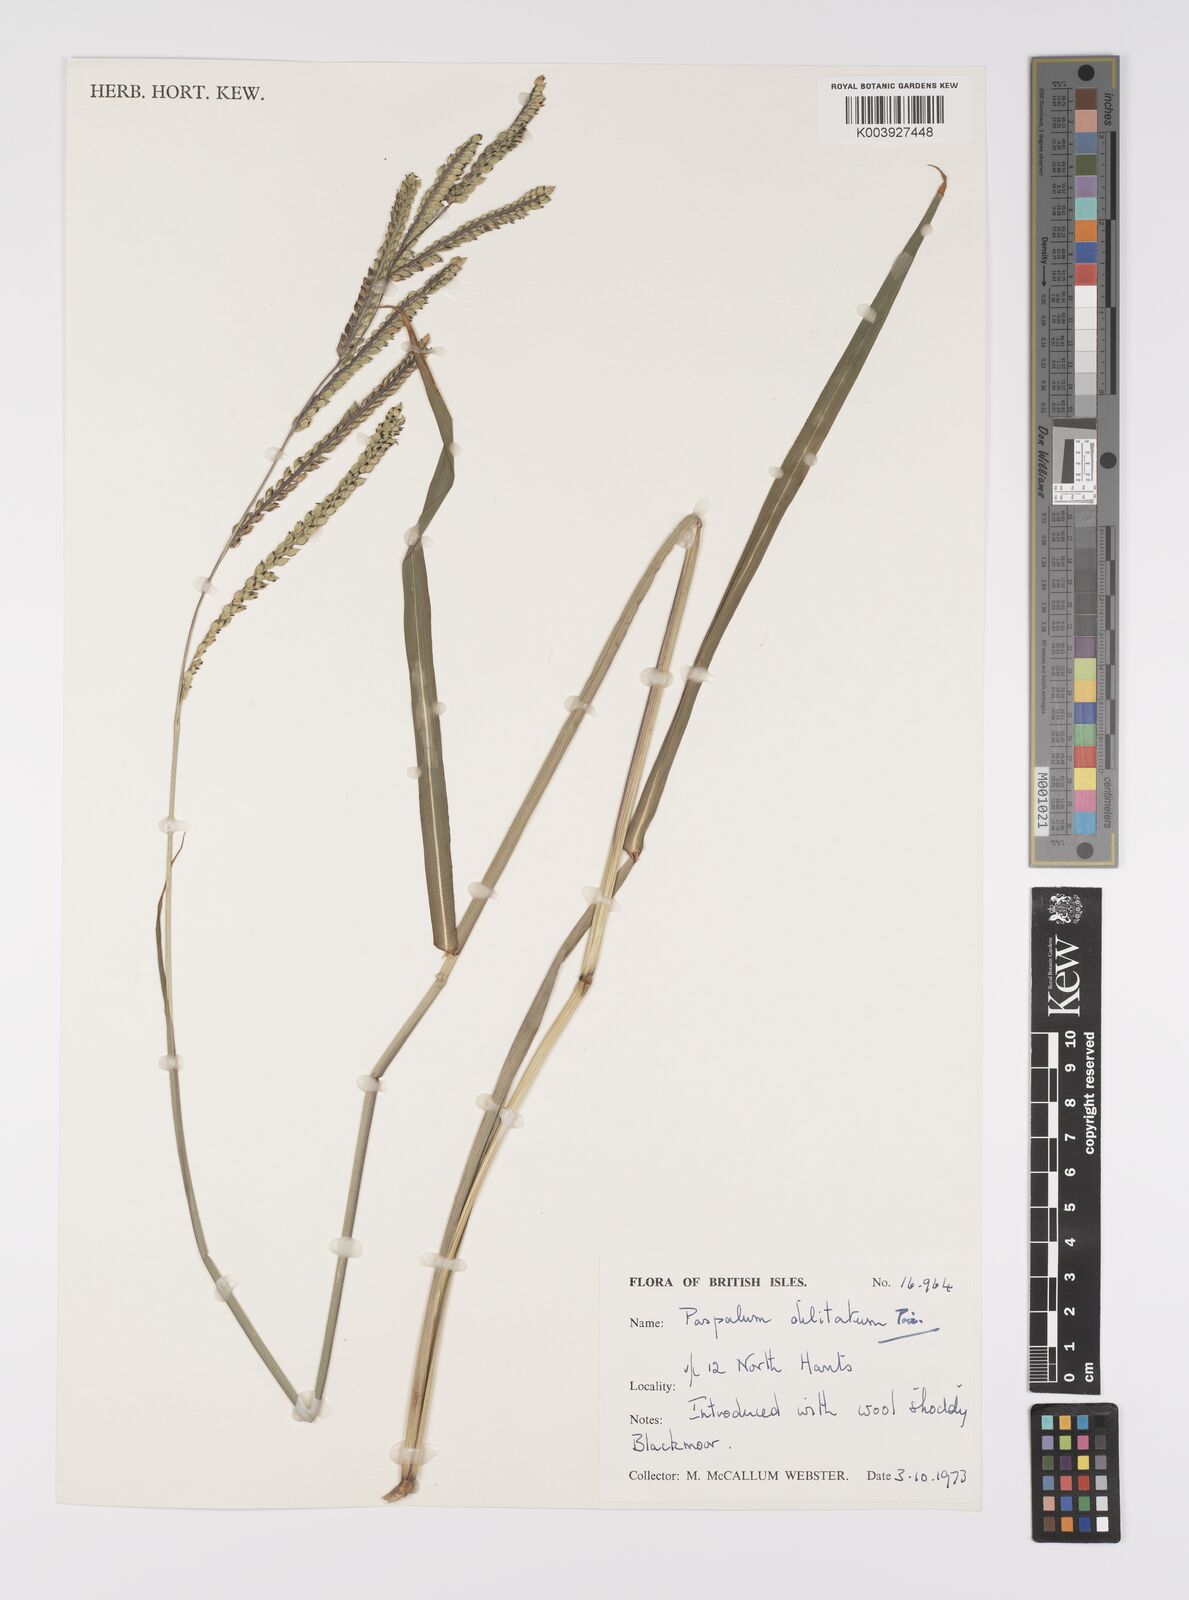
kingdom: Plantae
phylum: Tracheophyta
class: Liliopsida
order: Poales
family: Poaceae
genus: Paspalum
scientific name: Paspalum dilatatum
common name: Dallisgrass
